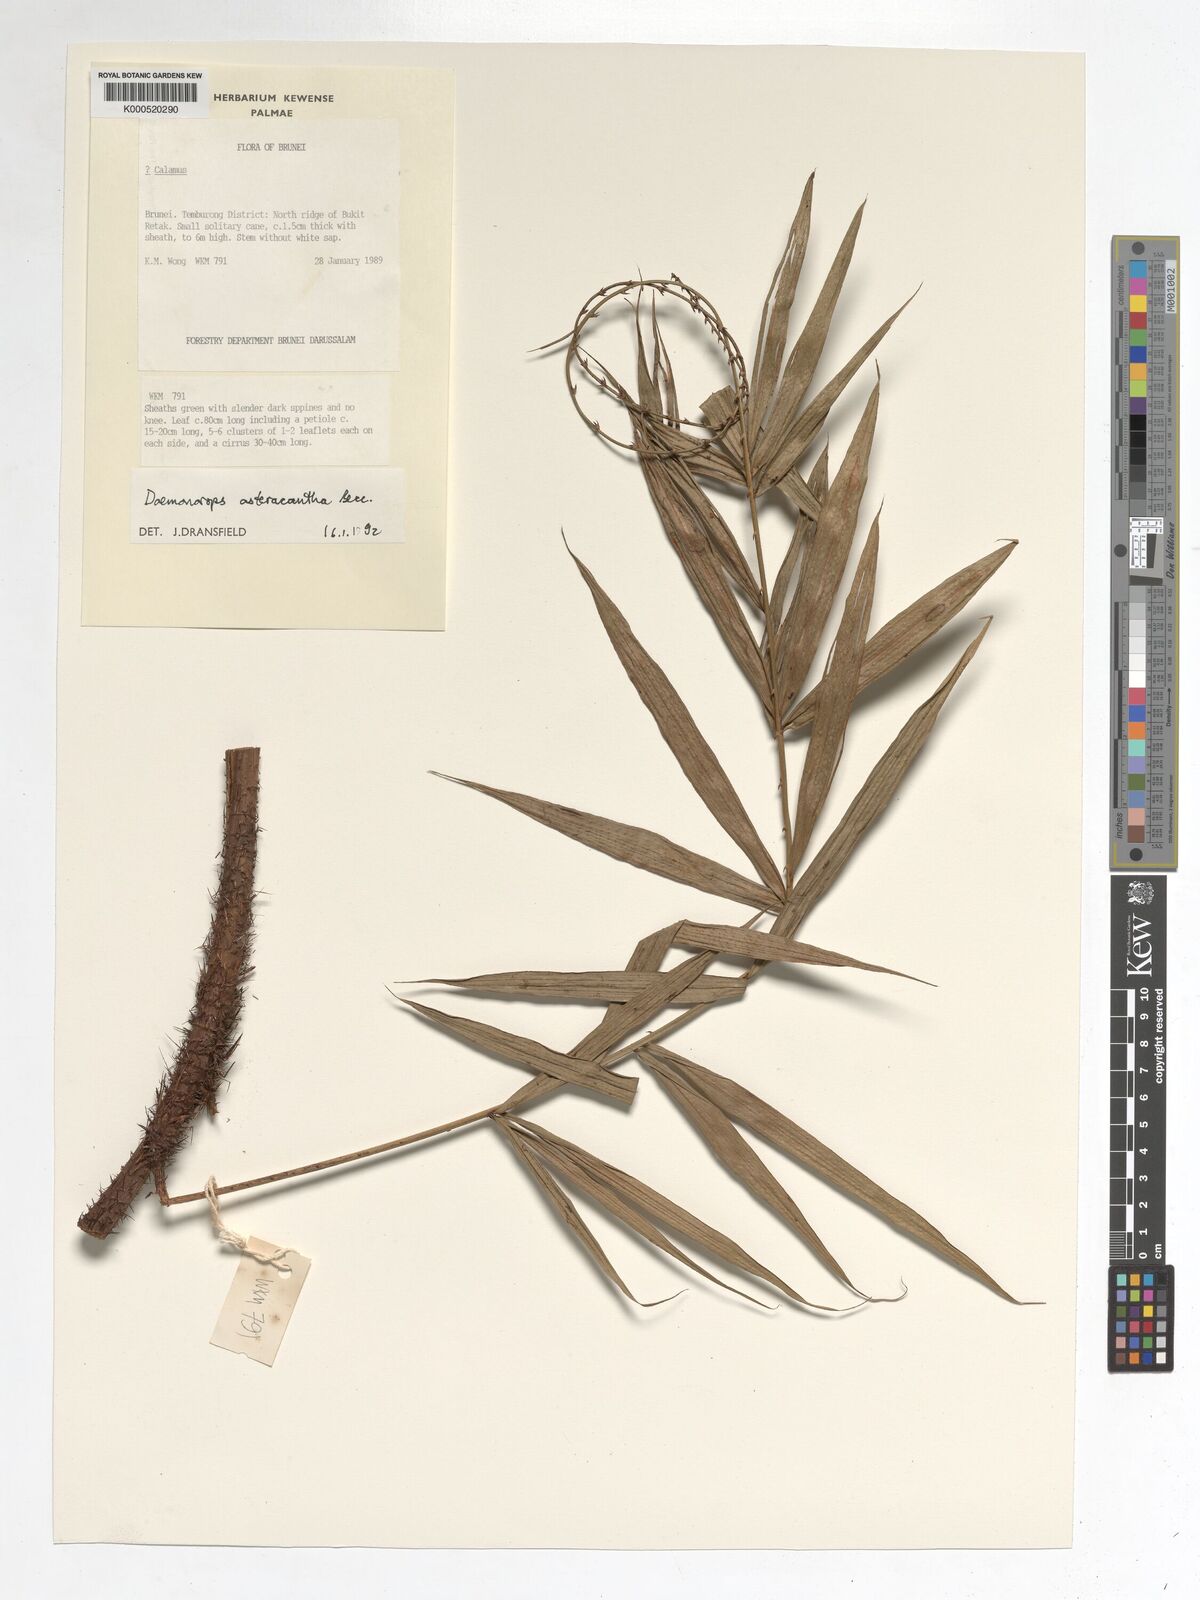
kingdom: Plantae
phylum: Tracheophyta
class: Liliopsida
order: Arecales
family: Arecaceae
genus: Calamus
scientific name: Calamus asteracanthus
